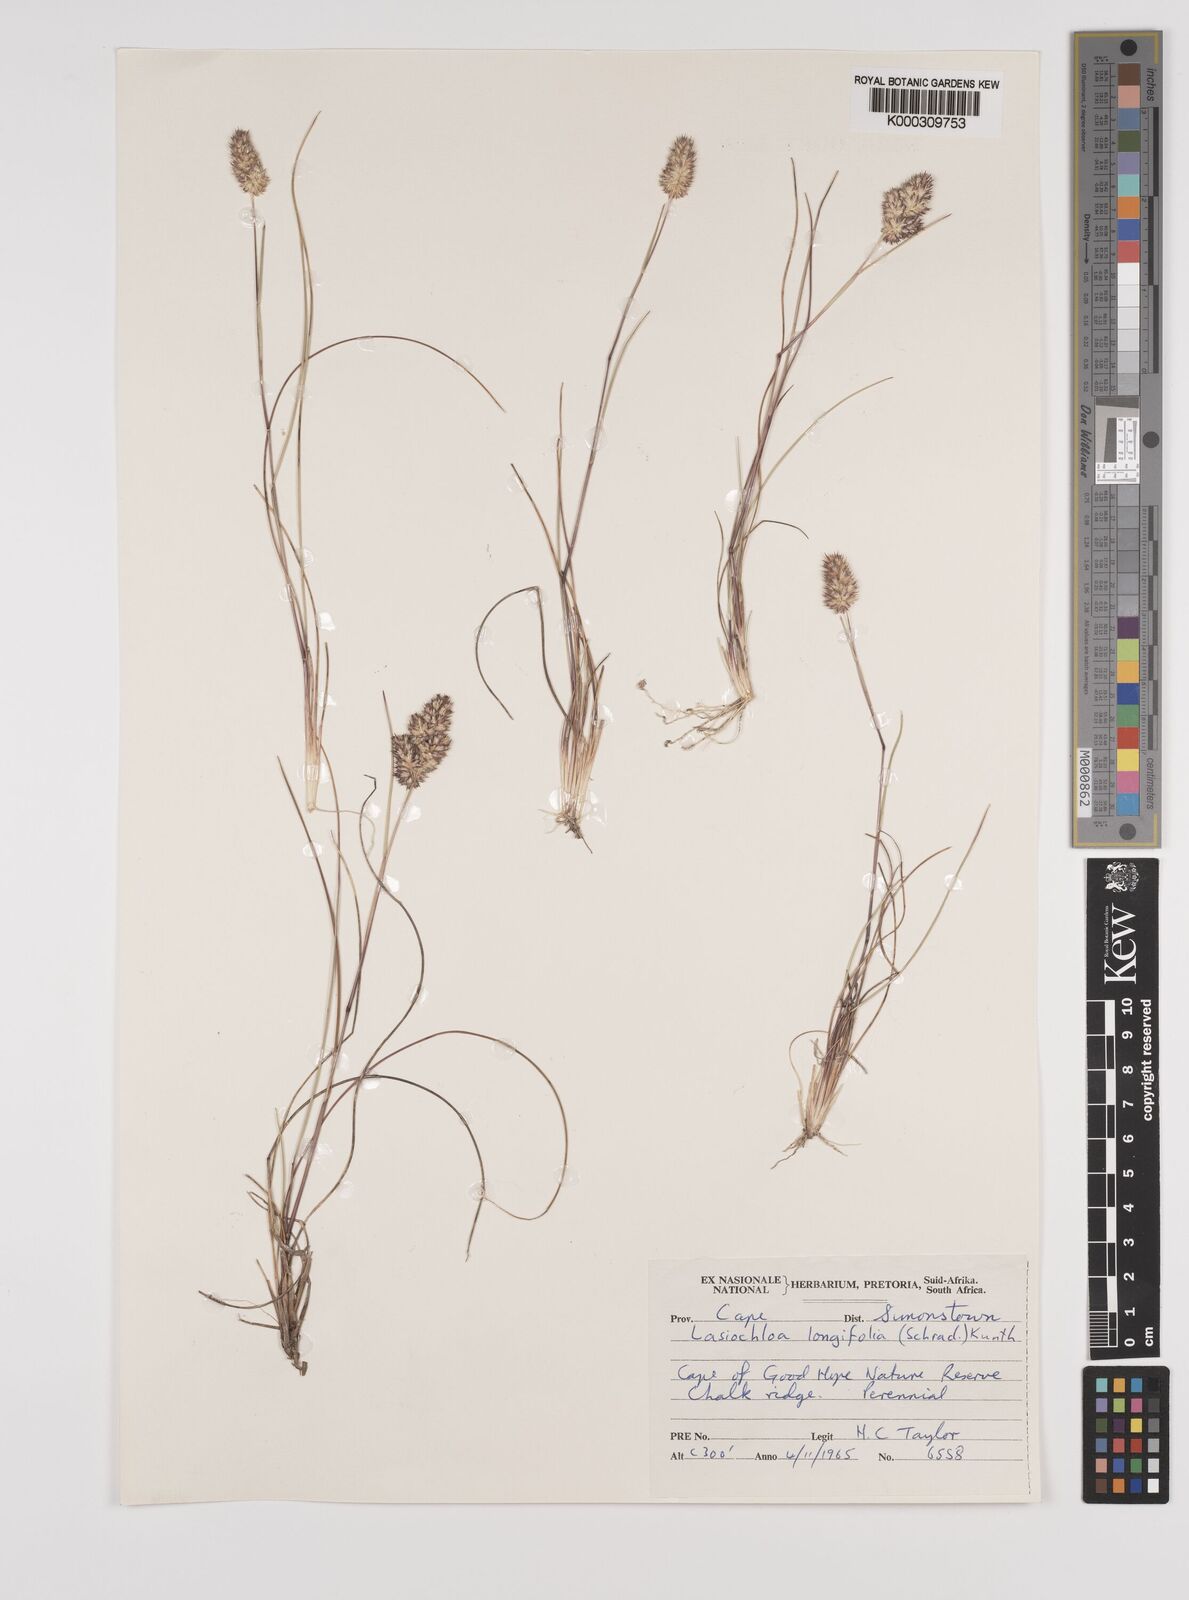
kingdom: Plantae
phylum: Tracheophyta
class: Liliopsida
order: Poales
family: Poaceae
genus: Tribolium
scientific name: Tribolium hispidum
